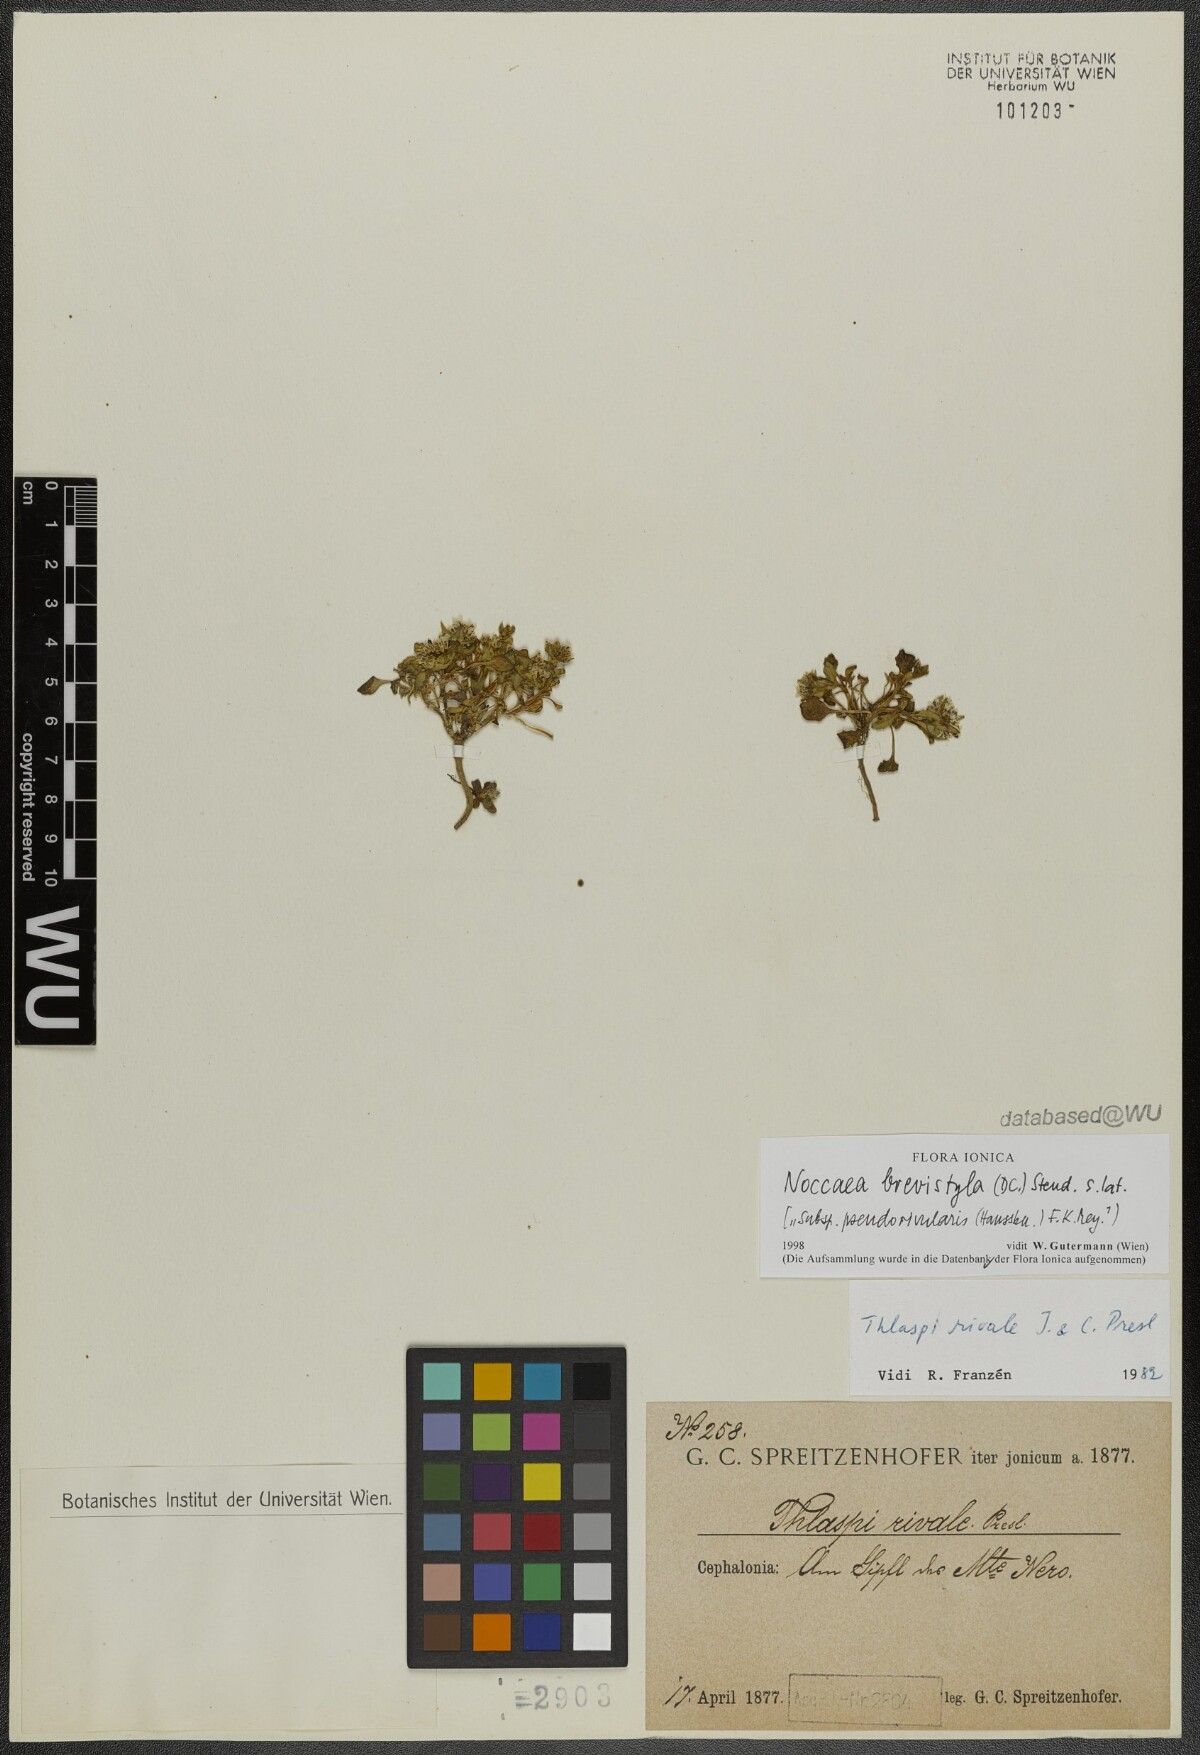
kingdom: Plantae
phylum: Tracheophyta
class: Magnoliopsida
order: Brassicales
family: Brassicaceae
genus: Noccaea
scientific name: Noccaea brevistyla
